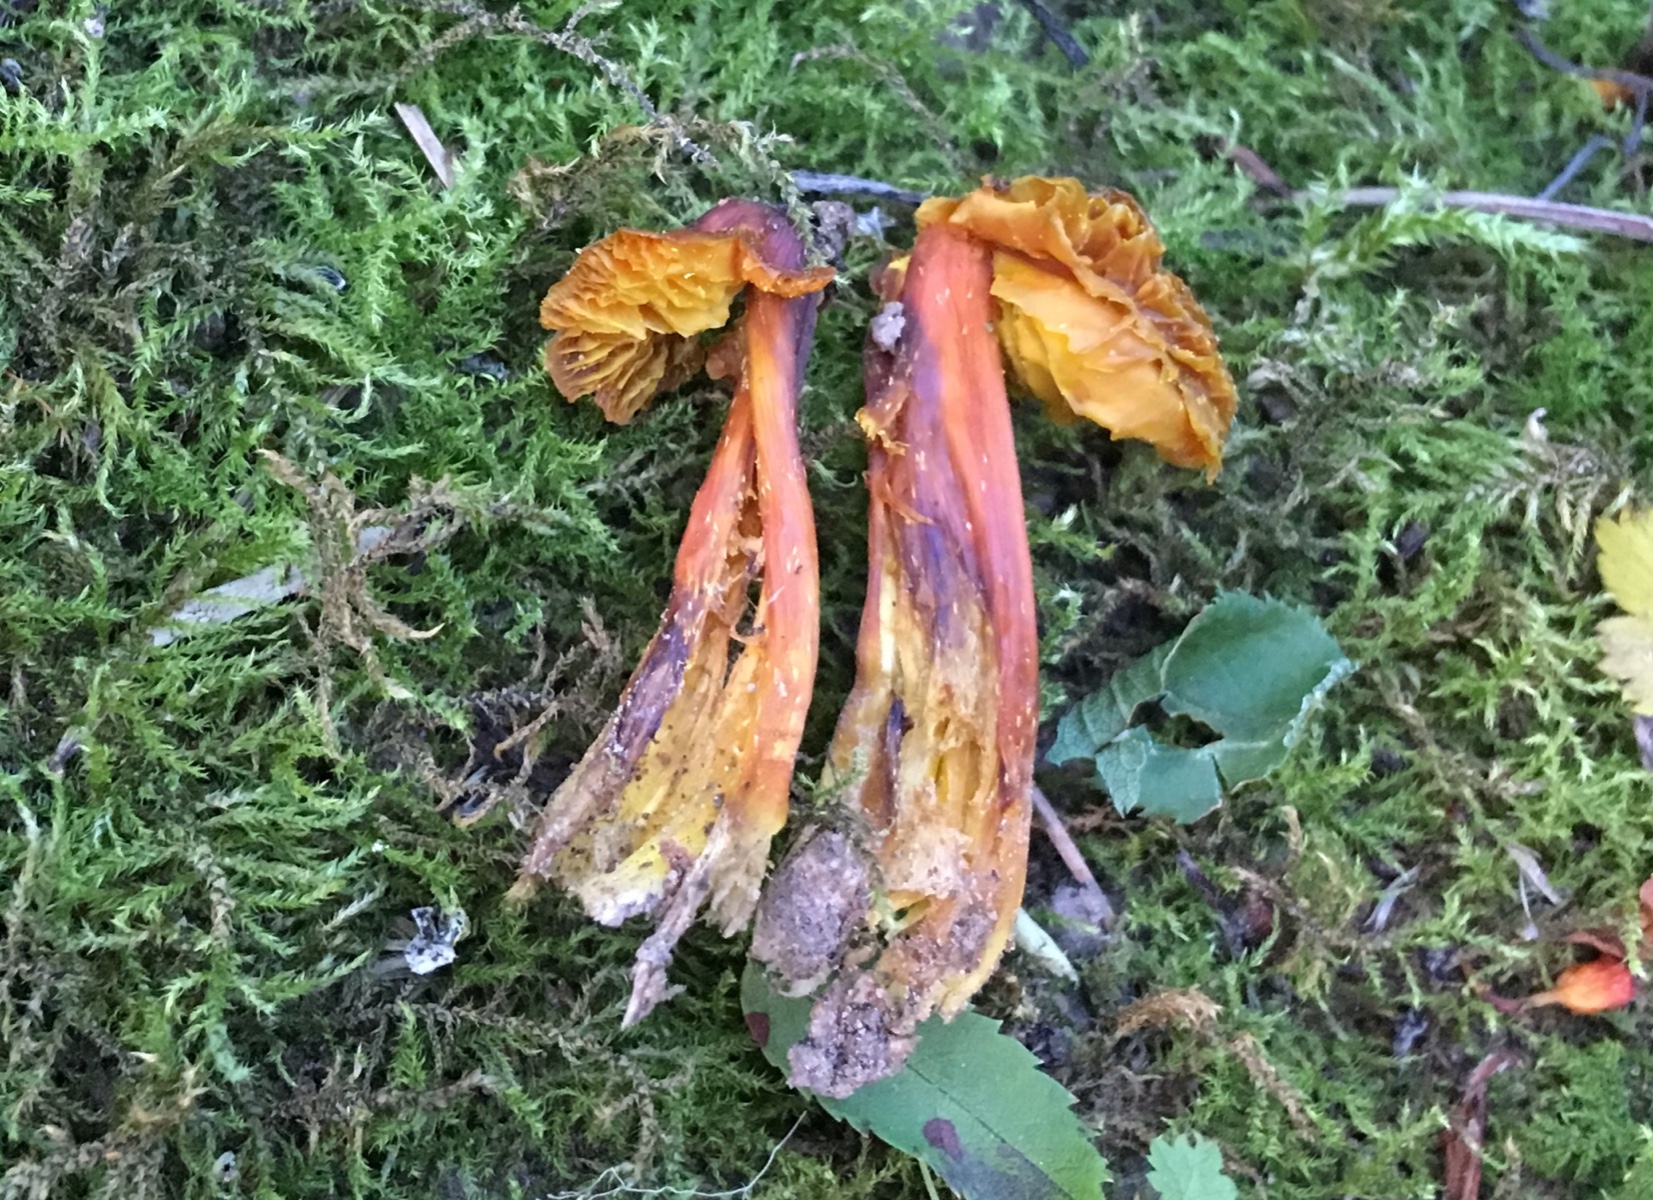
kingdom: Fungi
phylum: Basidiomycota
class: Agaricomycetes
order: Agaricales
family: Hygrophoraceae
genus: Hygrocybe
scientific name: Hygrocybe chlorophana
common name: gul vokshat
